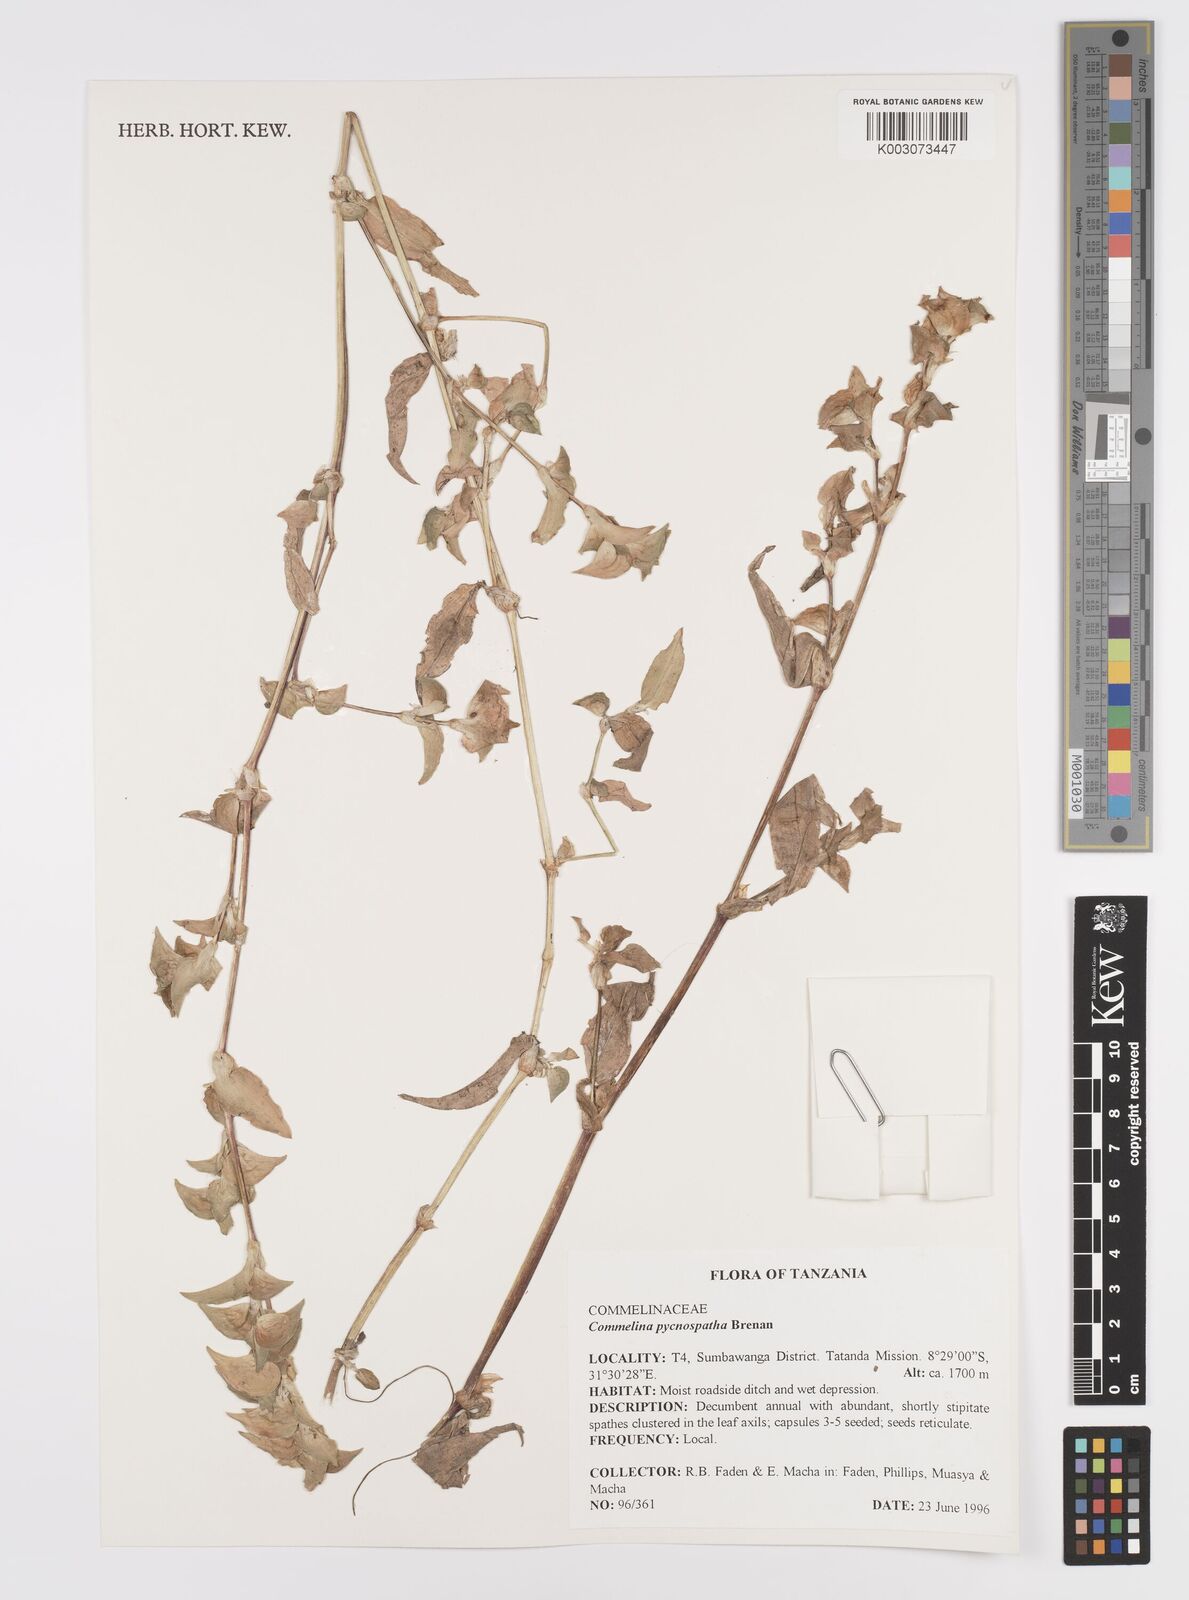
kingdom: Plantae
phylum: Tracheophyta
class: Liliopsida
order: Commelinales
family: Commelinaceae
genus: Commelina
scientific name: Commelina pycnospatha
